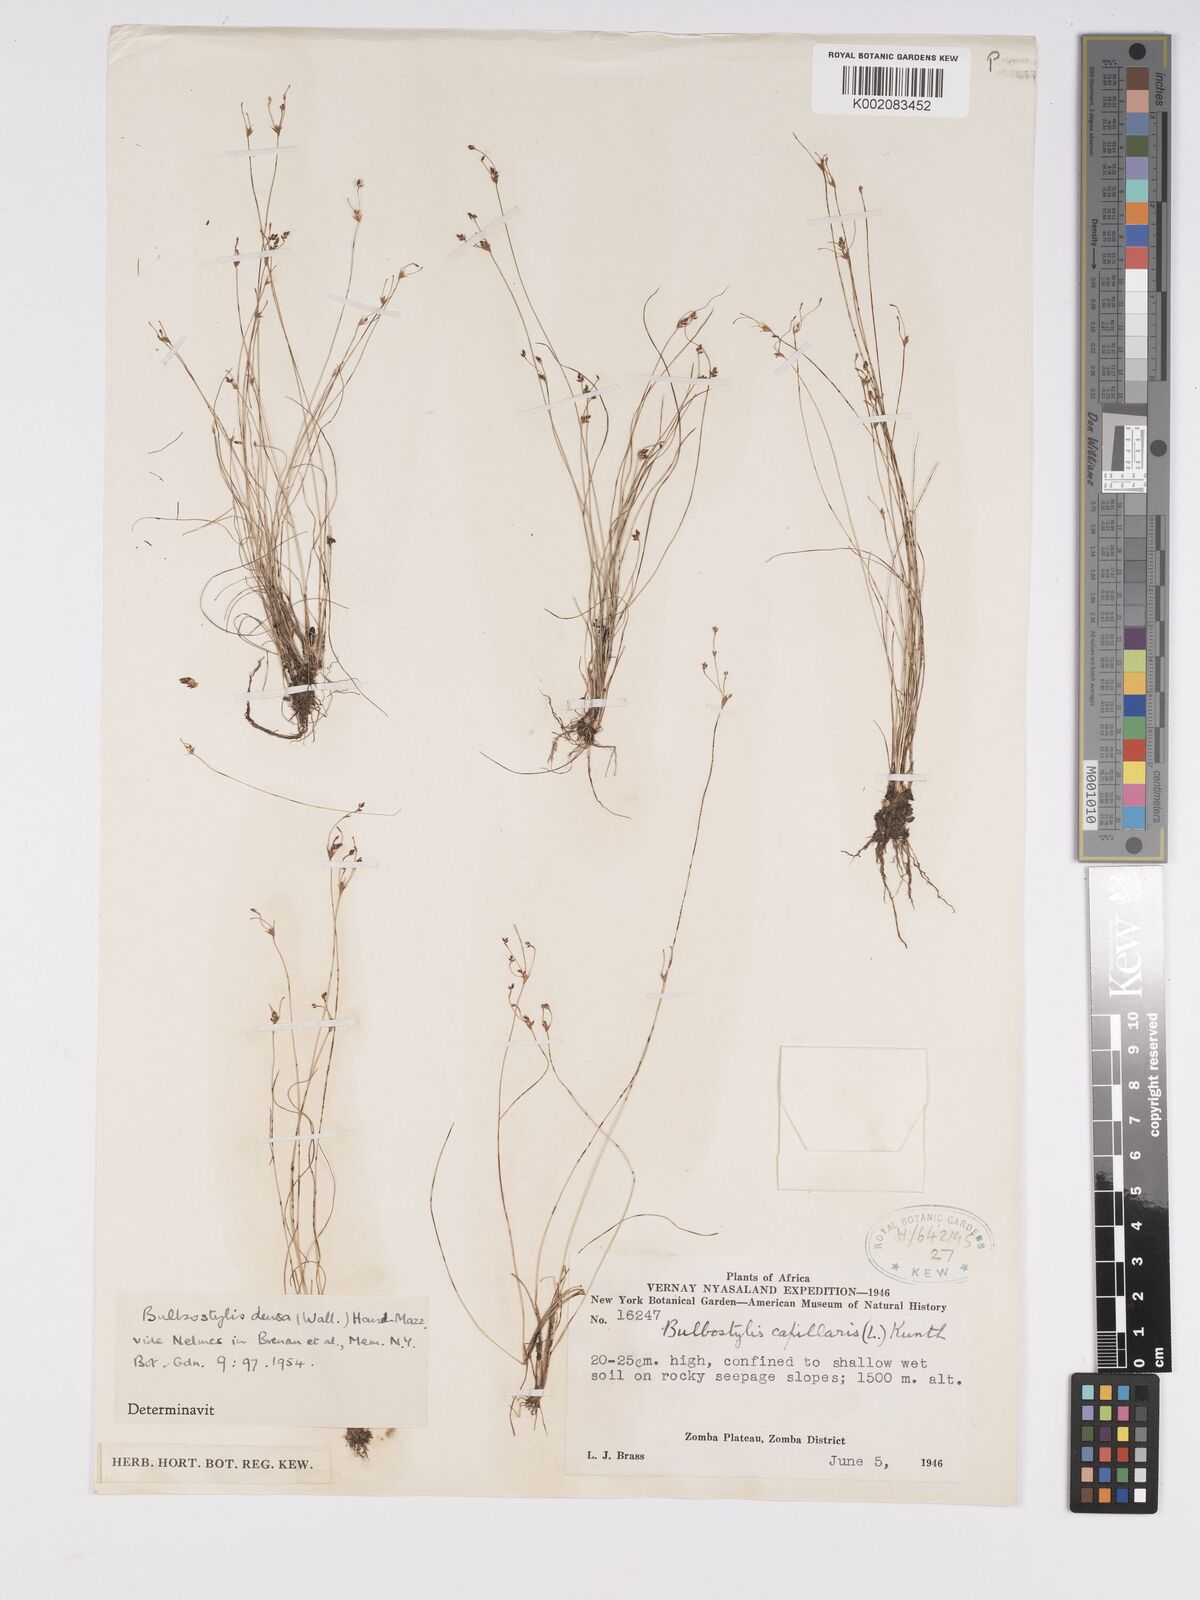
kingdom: Plantae
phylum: Tracheophyta
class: Liliopsida
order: Poales
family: Cyperaceae
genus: Bulbostylis
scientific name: Bulbostylis capillaris
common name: Densetuft hairsedge
